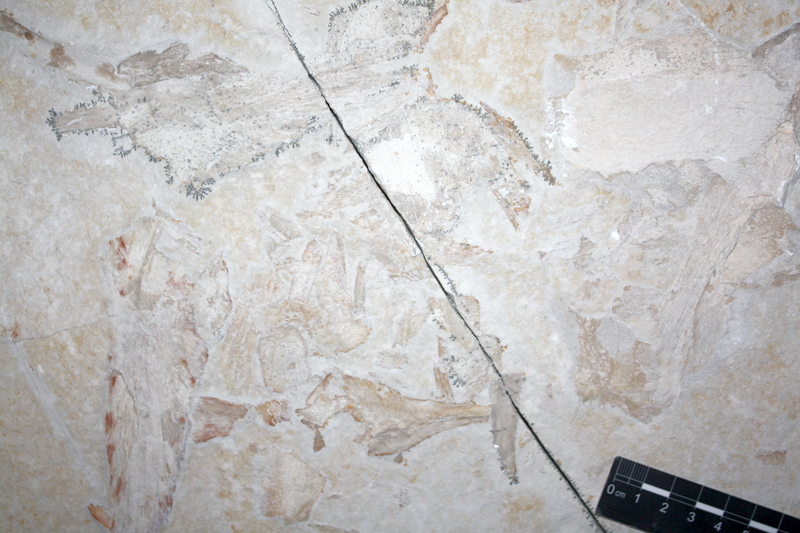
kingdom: Animalia
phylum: Chordata
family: Pachycormidae
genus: Asthenocormus
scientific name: Asthenocormus titanius
